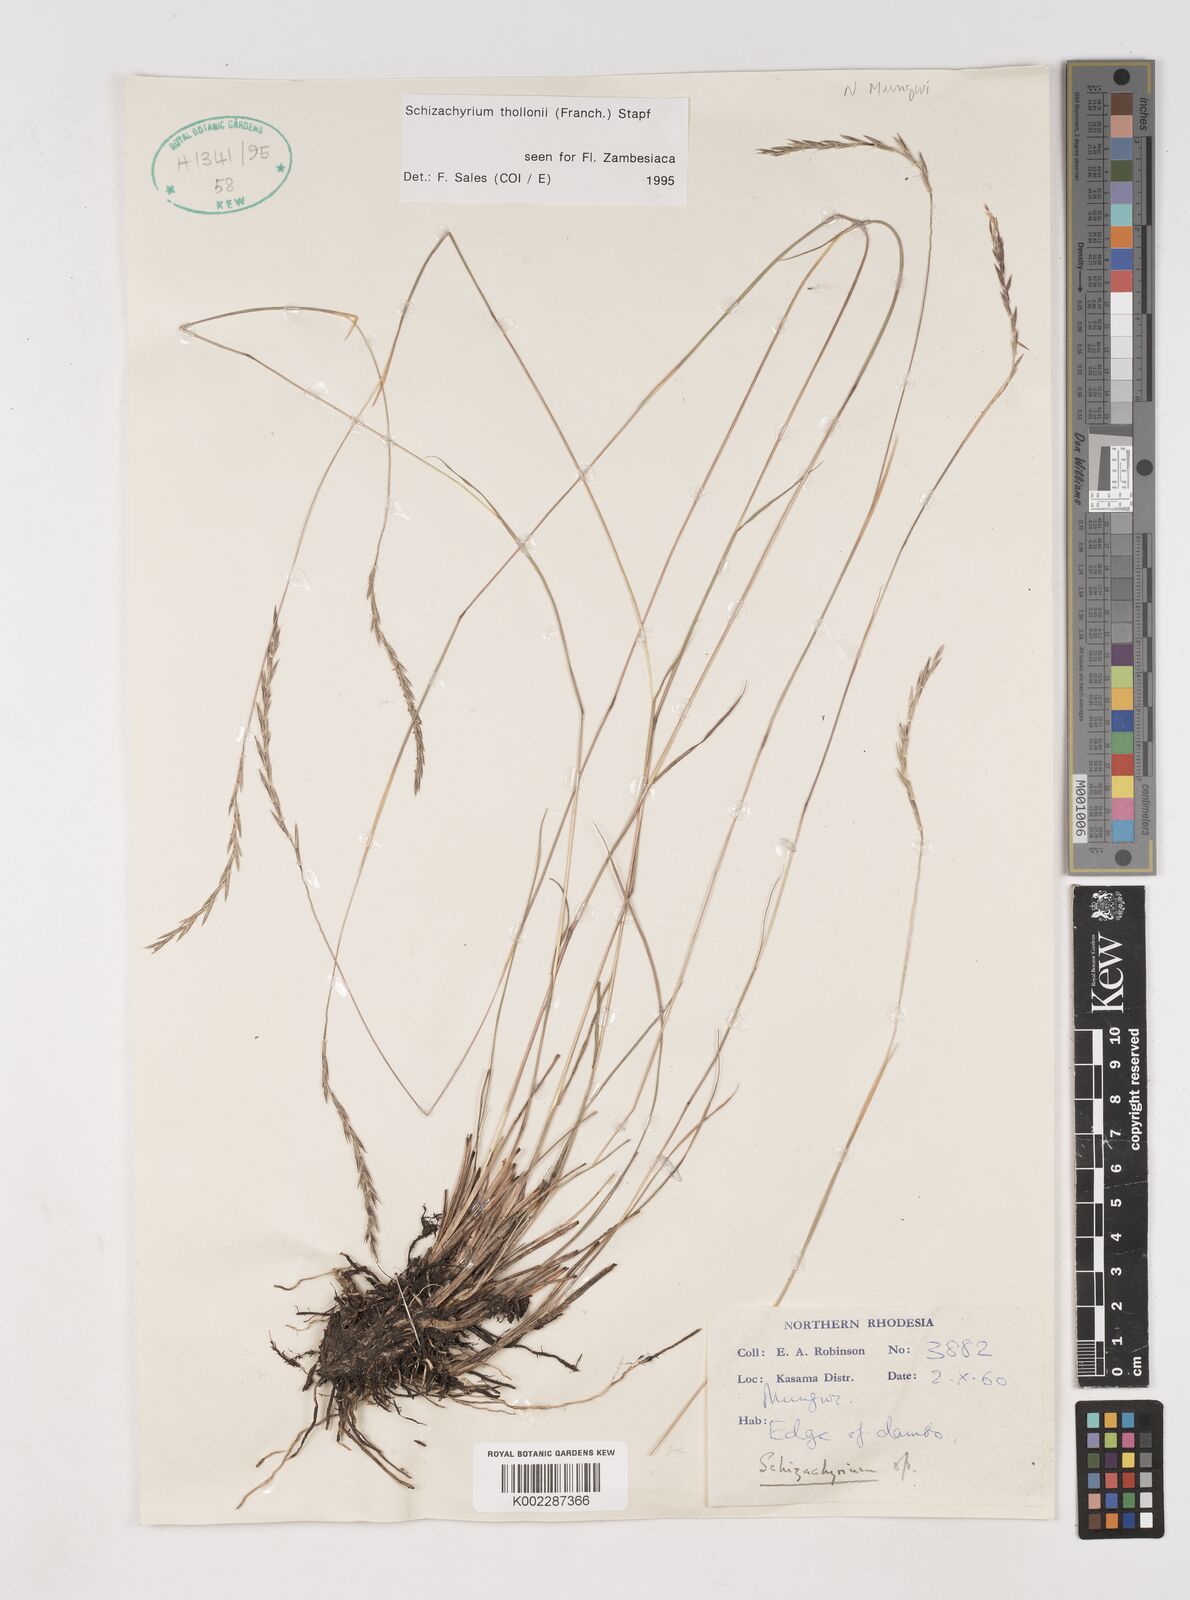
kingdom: Plantae
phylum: Tracheophyta
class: Liliopsida
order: Poales
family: Poaceae
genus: Schizachyrium
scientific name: Schizachyrium thollonii
